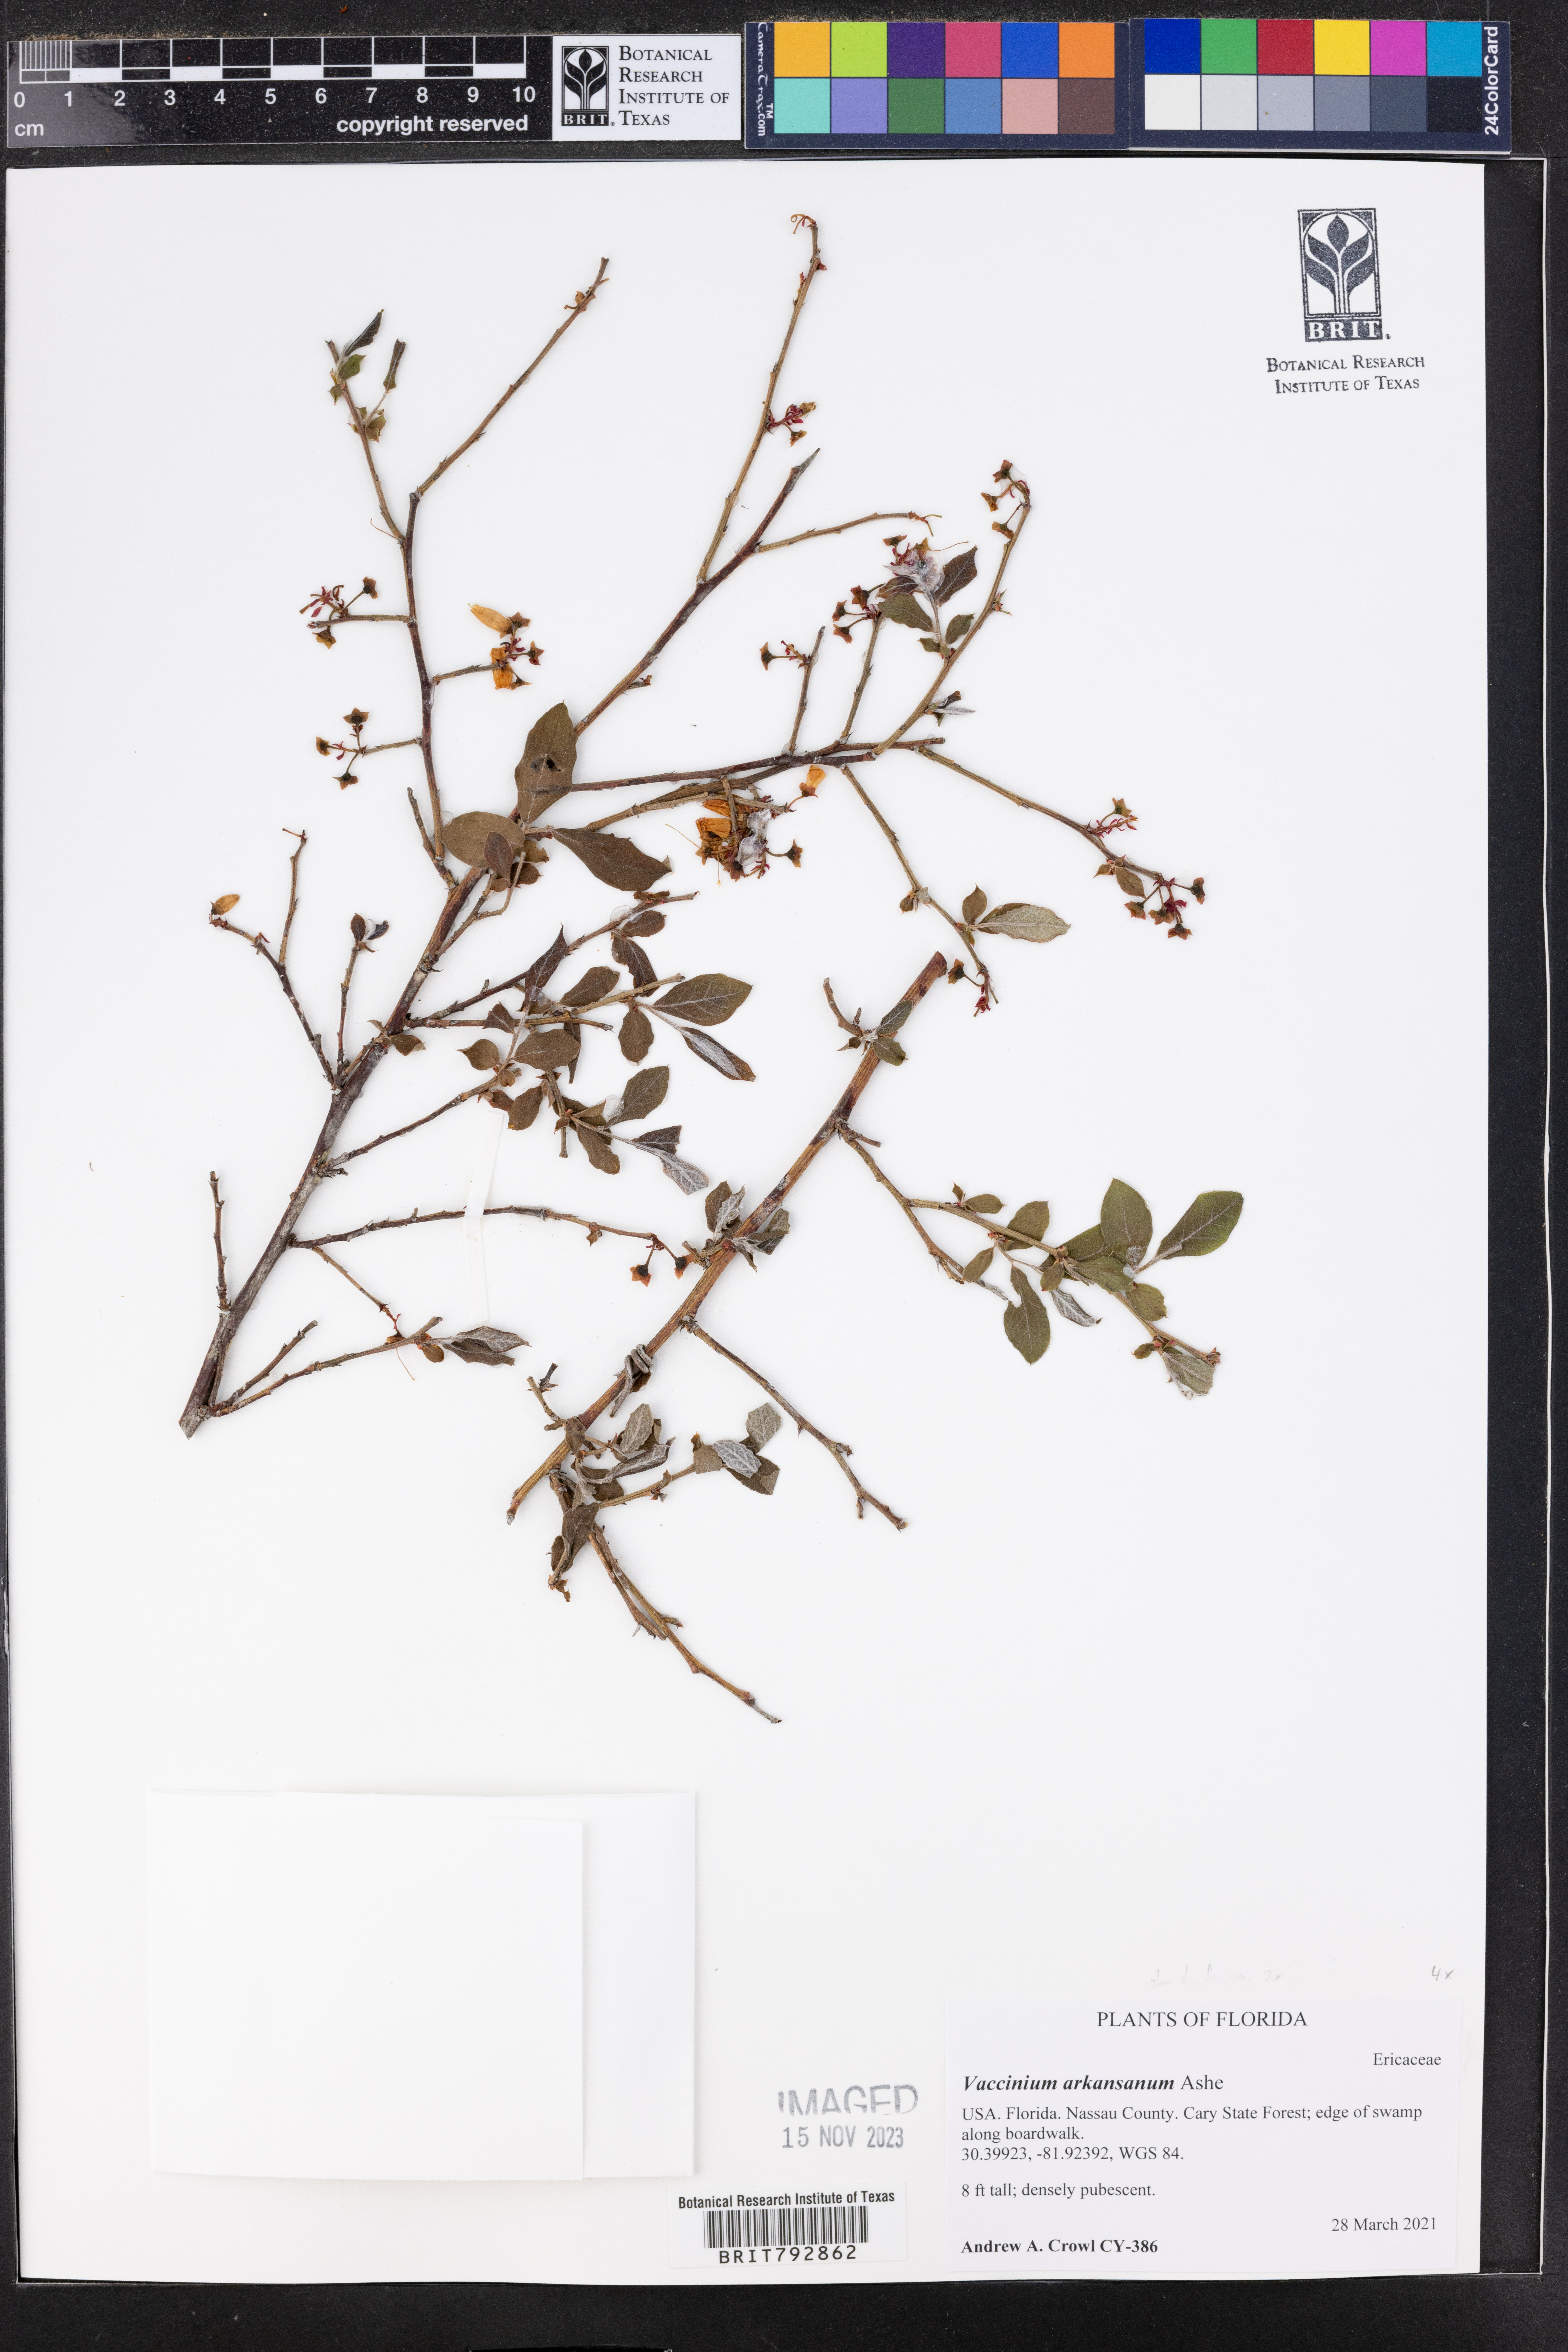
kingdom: Plantae
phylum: Tracheophyta
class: Magnoliopsida
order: Ericales
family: Ericaceae
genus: Vaccinium
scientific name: Vaccinium corymbosum
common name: Blueberry
